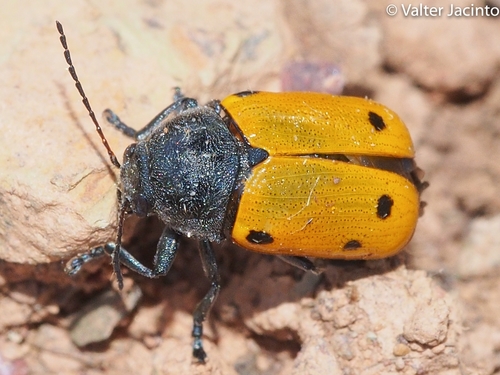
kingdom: Animalia
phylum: Arthropoda
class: Insecta
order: Coleoptera
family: Chrysomelidae
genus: Cryptocephalus
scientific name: Cryptocephalus
